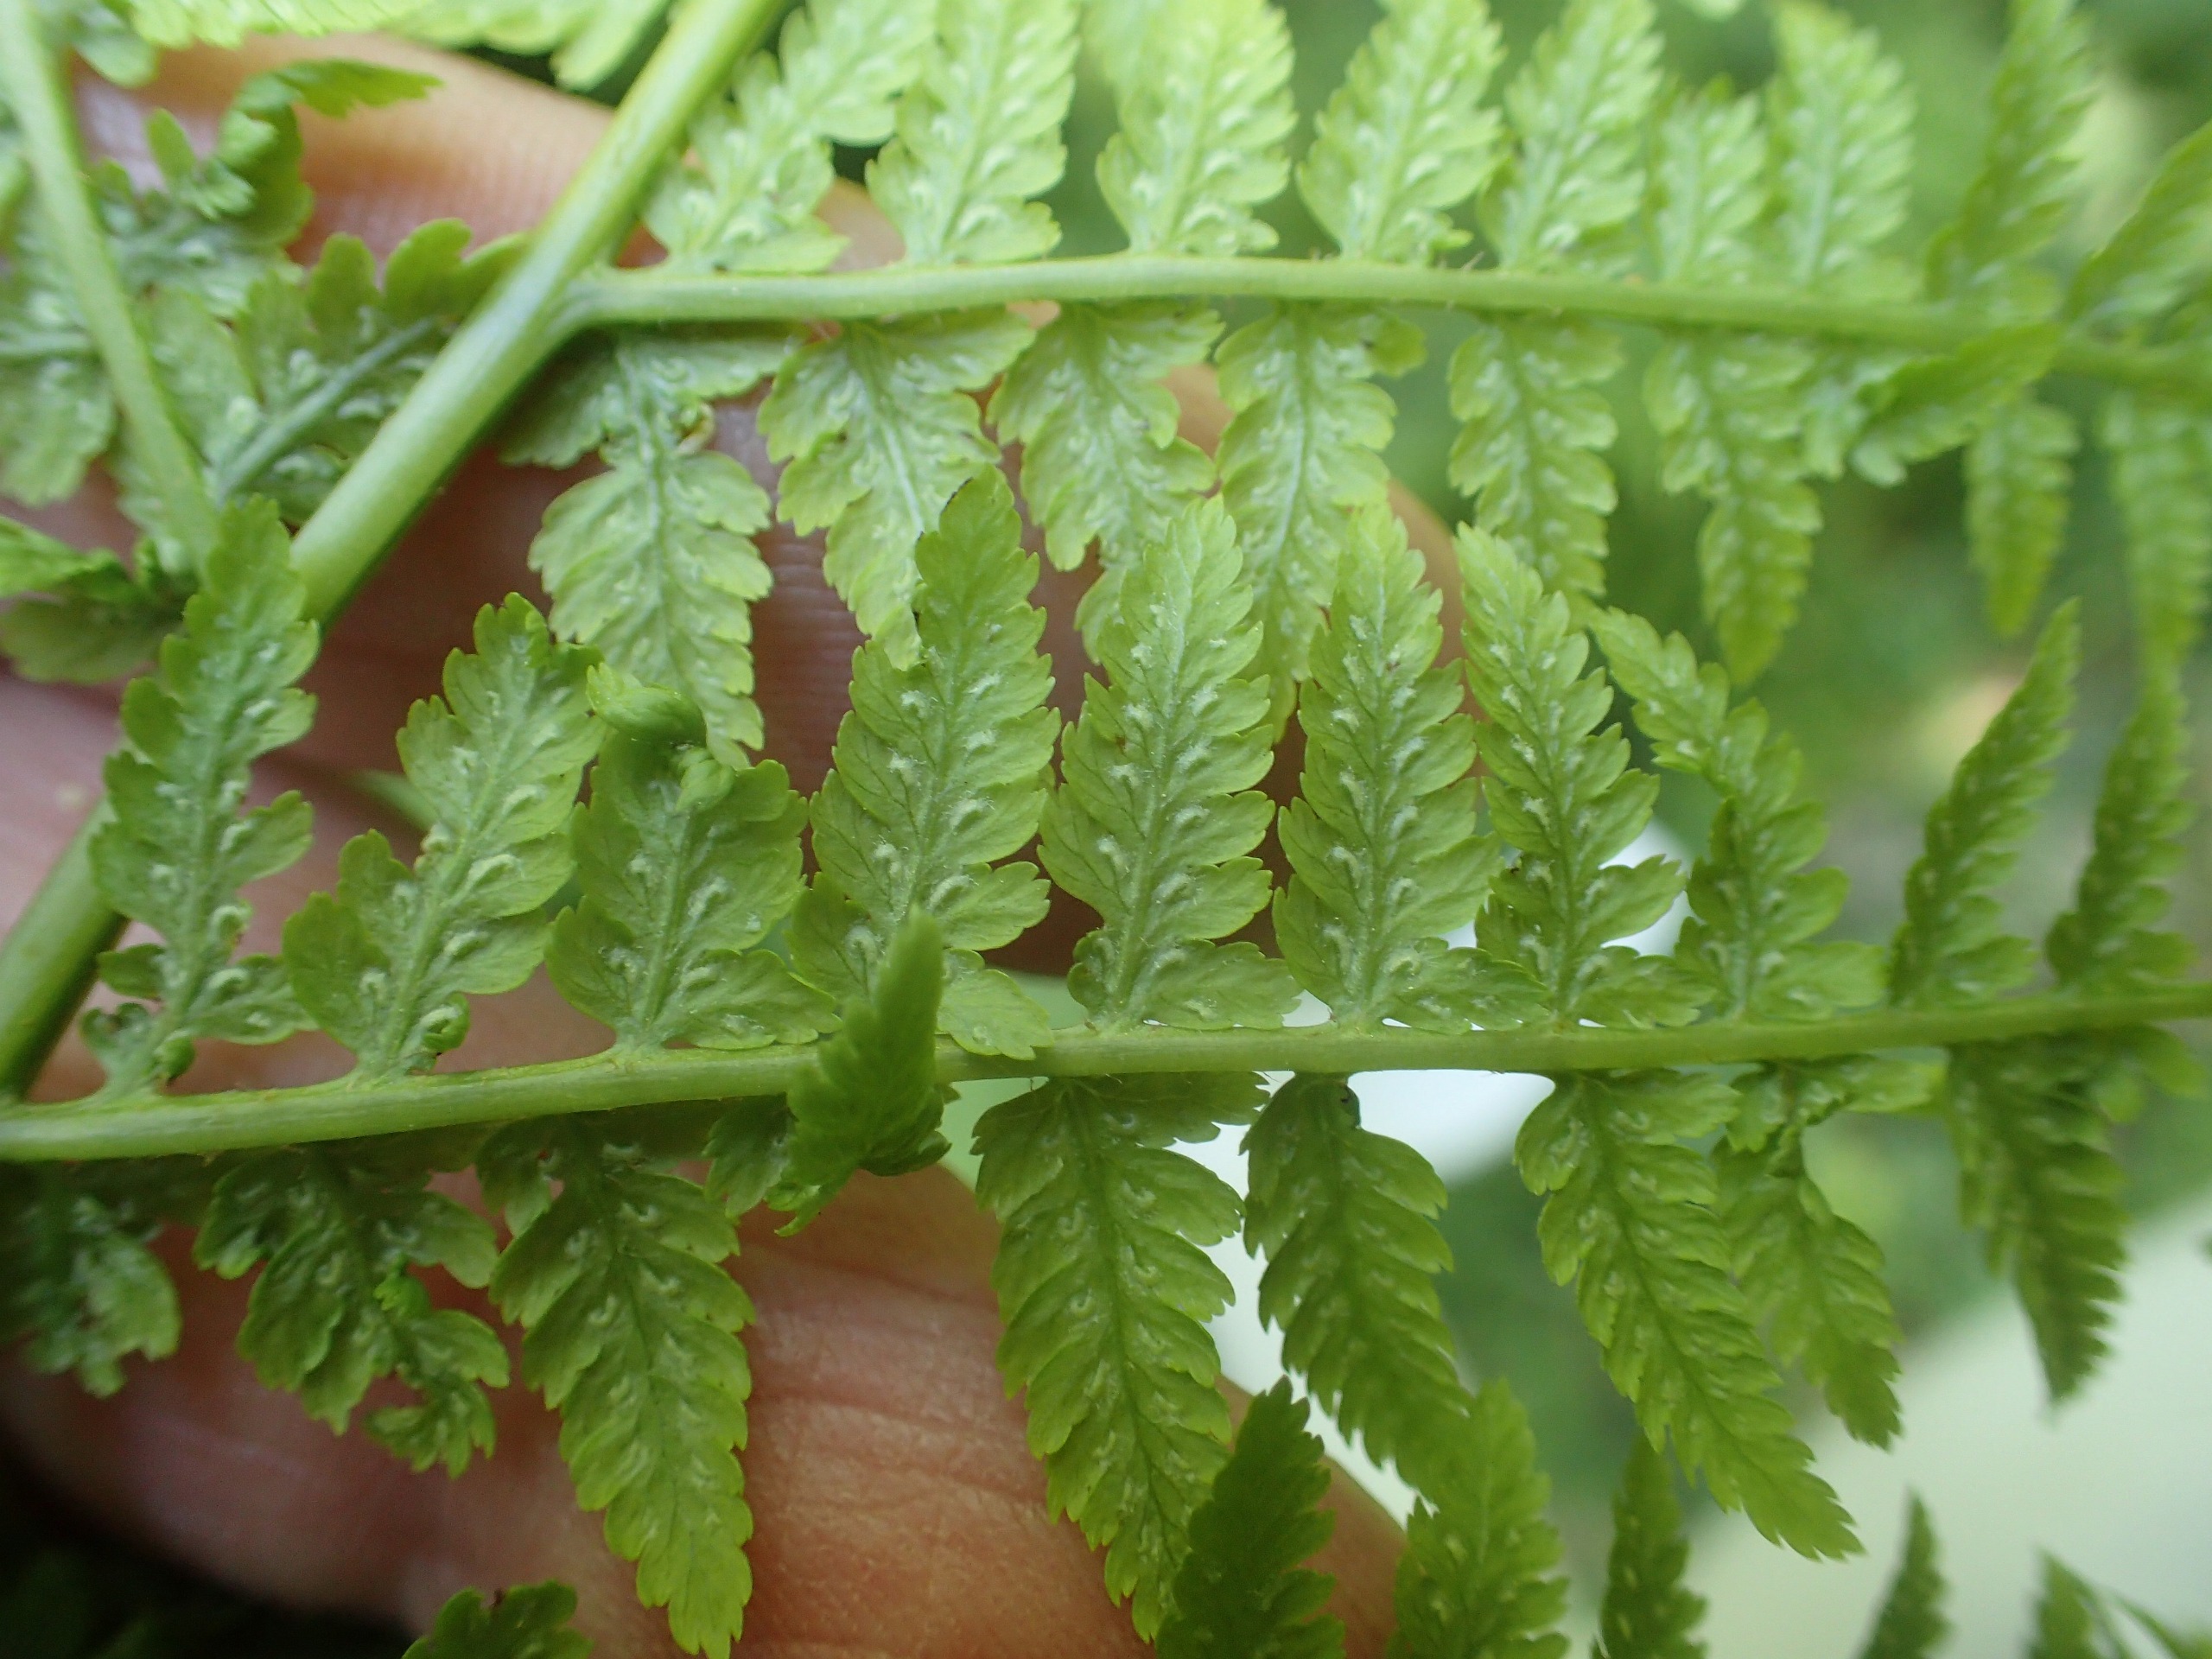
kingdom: Plantae
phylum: Tracheophyta
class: Polypodiopsida
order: Polypodiales
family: Athyriaceae
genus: Athyrium
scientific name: Athyrium filix-femina
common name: Fjerbregne
